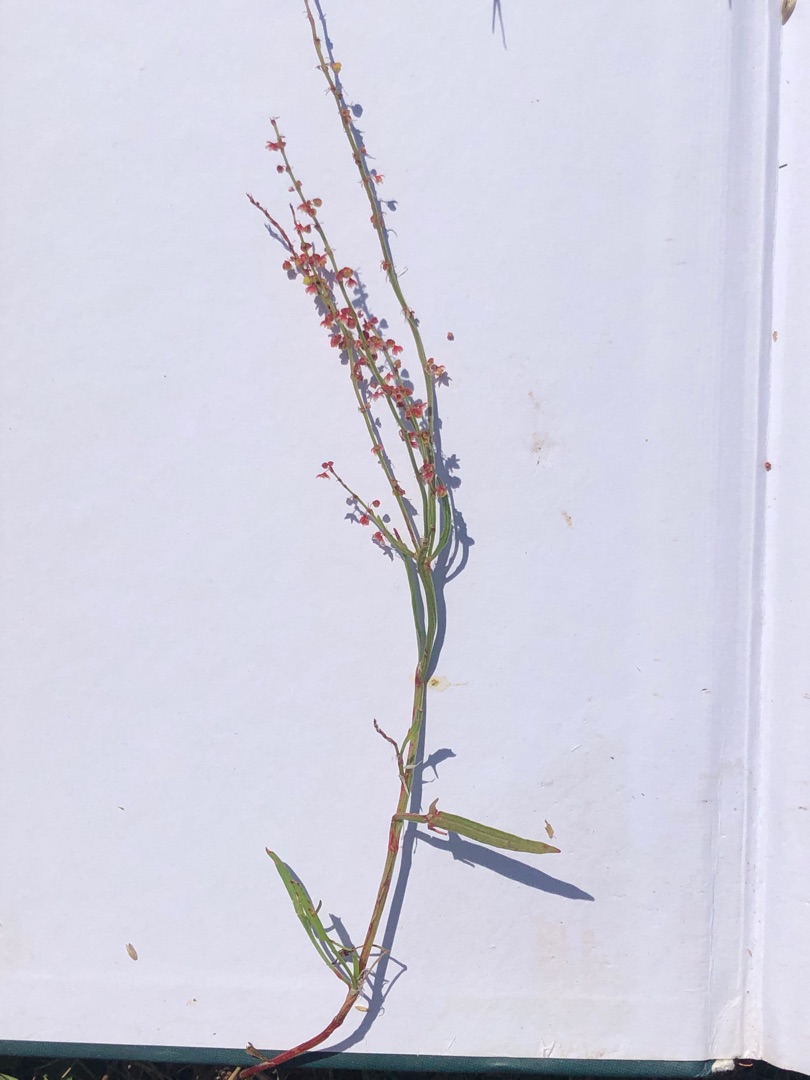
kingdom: Plantae
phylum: Tracheophyta
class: Magnoliopsida
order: Caryophyllales
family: Polygonaceae
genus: Rumex
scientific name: Rumex acetosella
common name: Rødknæ
